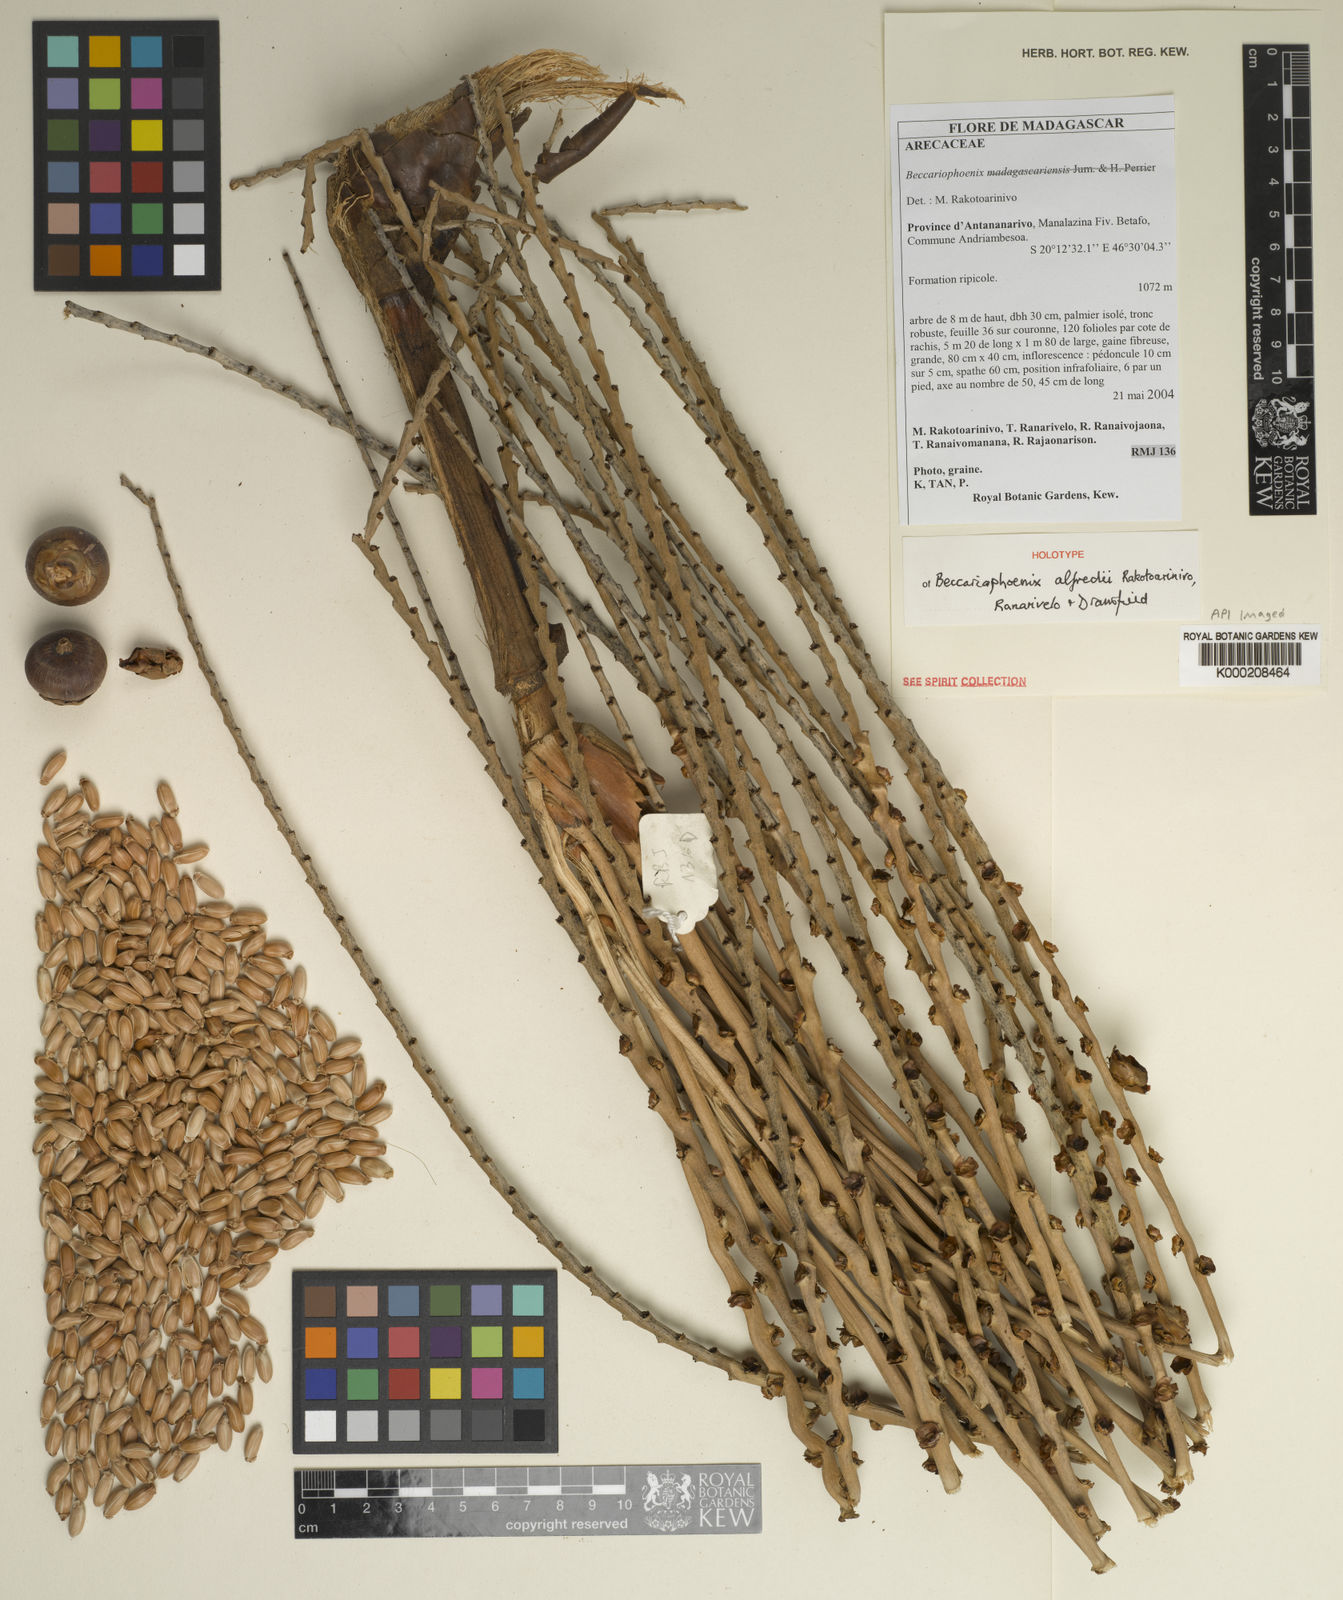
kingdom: Plantae
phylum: Tracheophyta
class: Liliopsida
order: Arecales
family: Arecaceae
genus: Beccariophoenix
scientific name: Beccariophoenix
